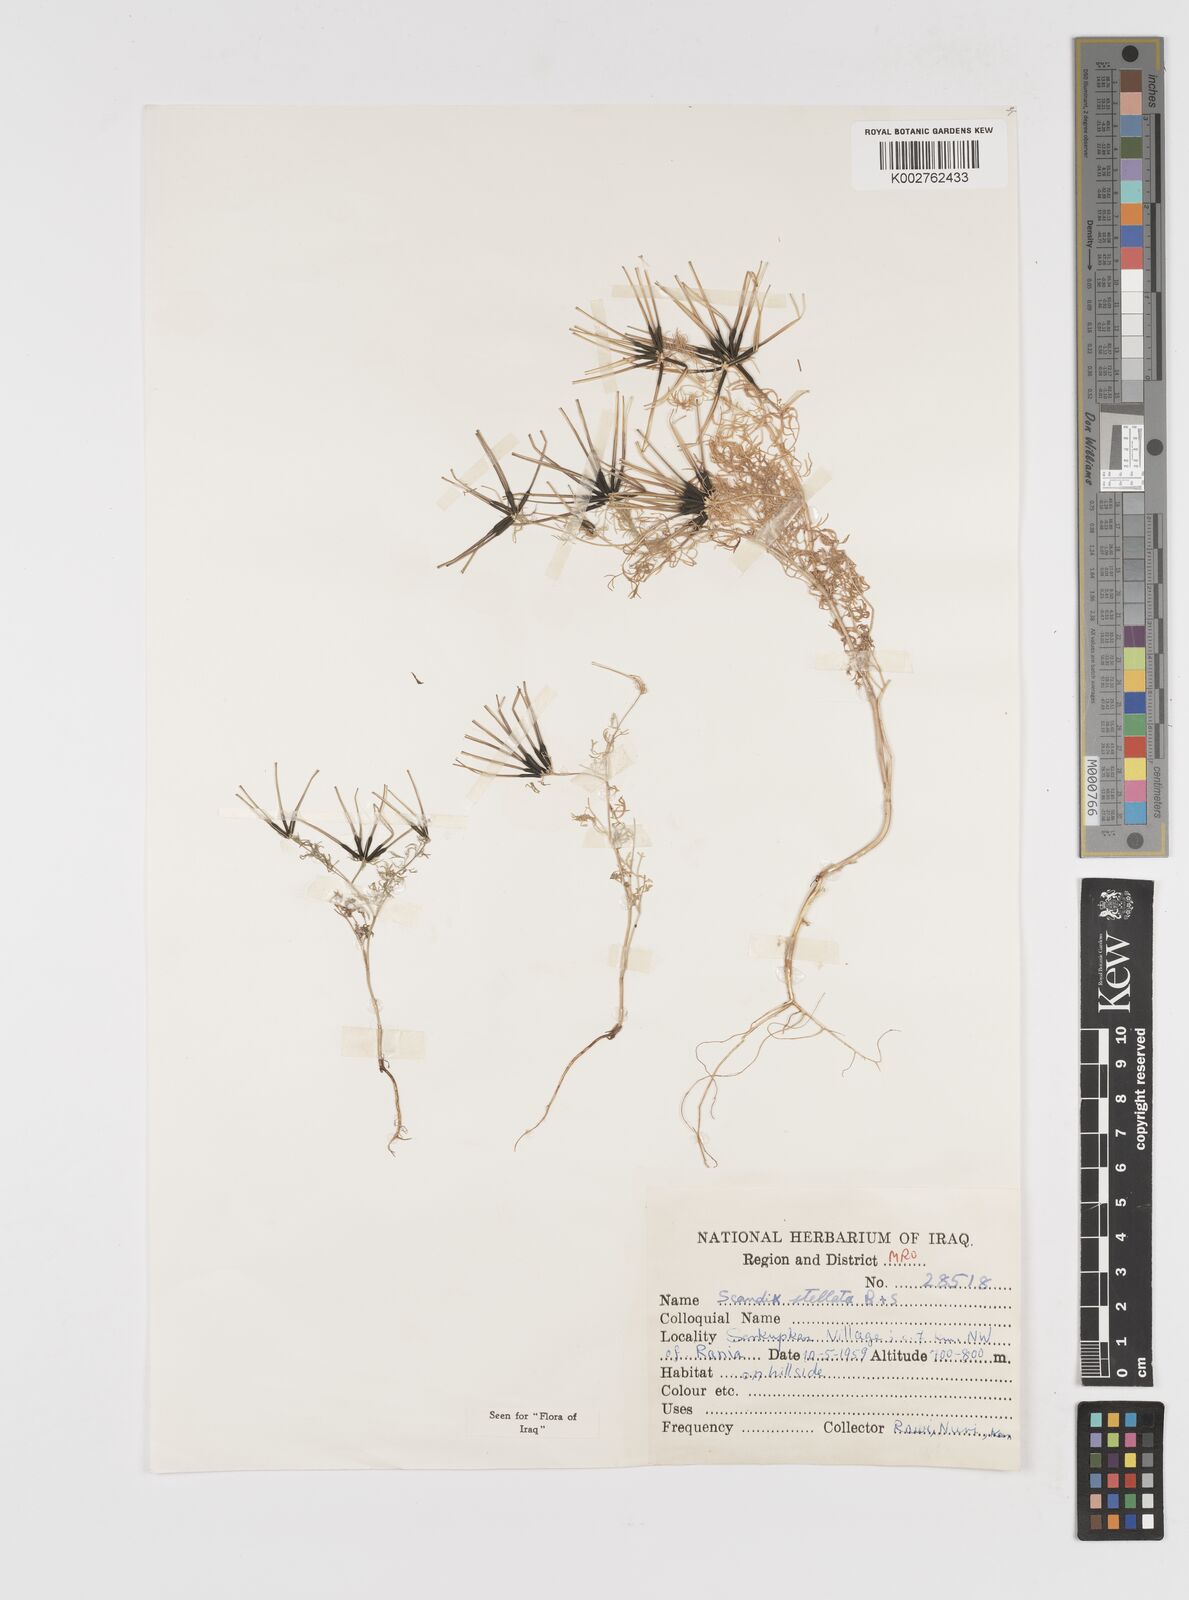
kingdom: Plantae
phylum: Tracheophyta
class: Magnoliopsida
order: Apiales
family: Apiaceae
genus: Scandix
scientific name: Scandix stellata
